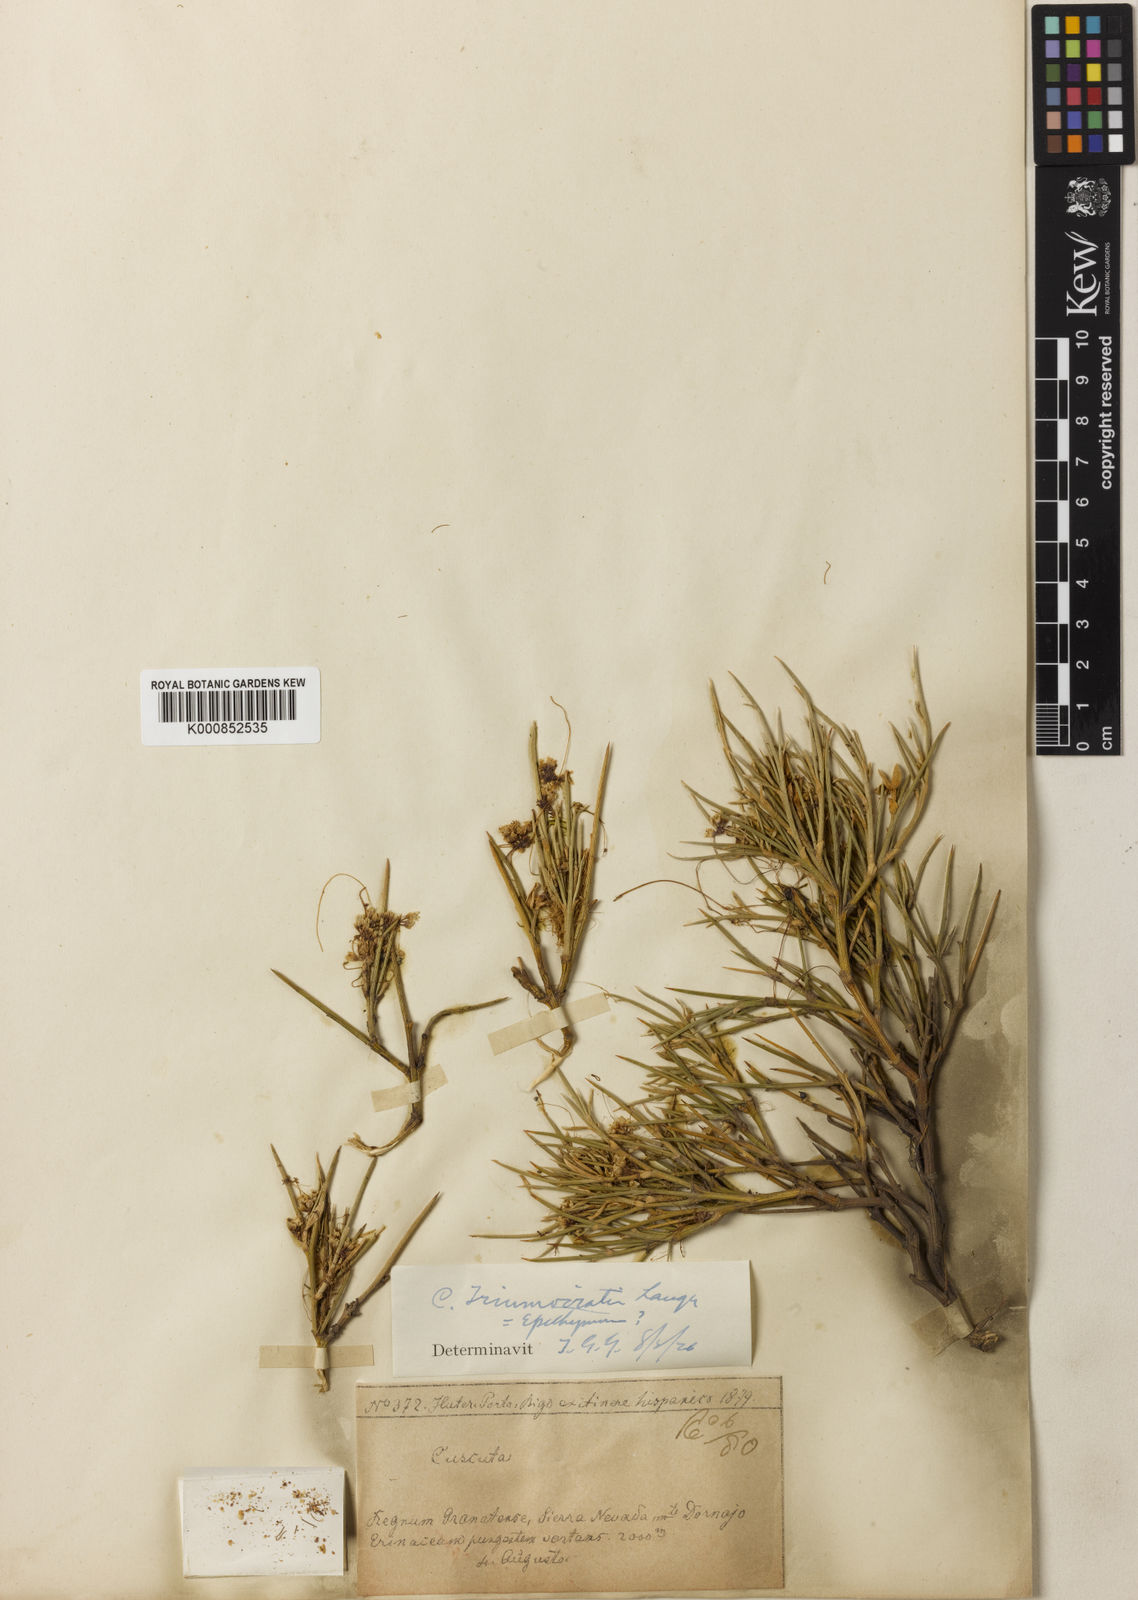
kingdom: Plantae
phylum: Tracheophyta
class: Magnoliopsida
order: Solanales
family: Convolvulaceae
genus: Cuscuta
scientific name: Cuscuta triumvirati
